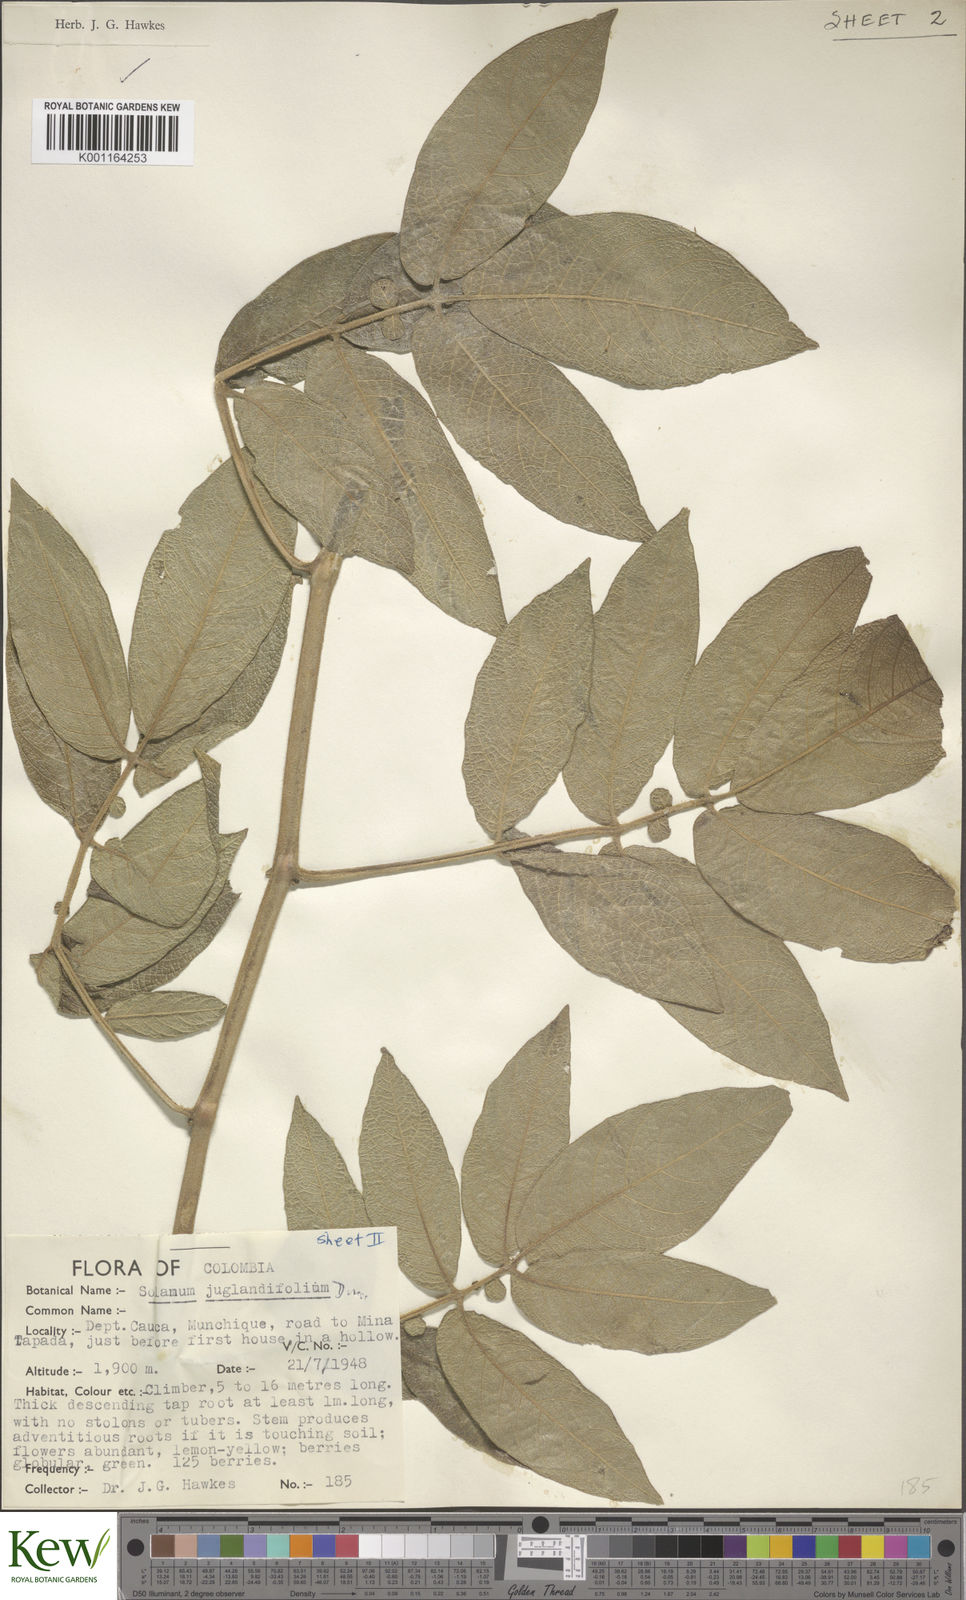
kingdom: Plantae
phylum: Tracheophyta
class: Magnoliopsida
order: Solanales
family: Solanaceae
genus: Solanum
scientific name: Solanum juglandifolium
